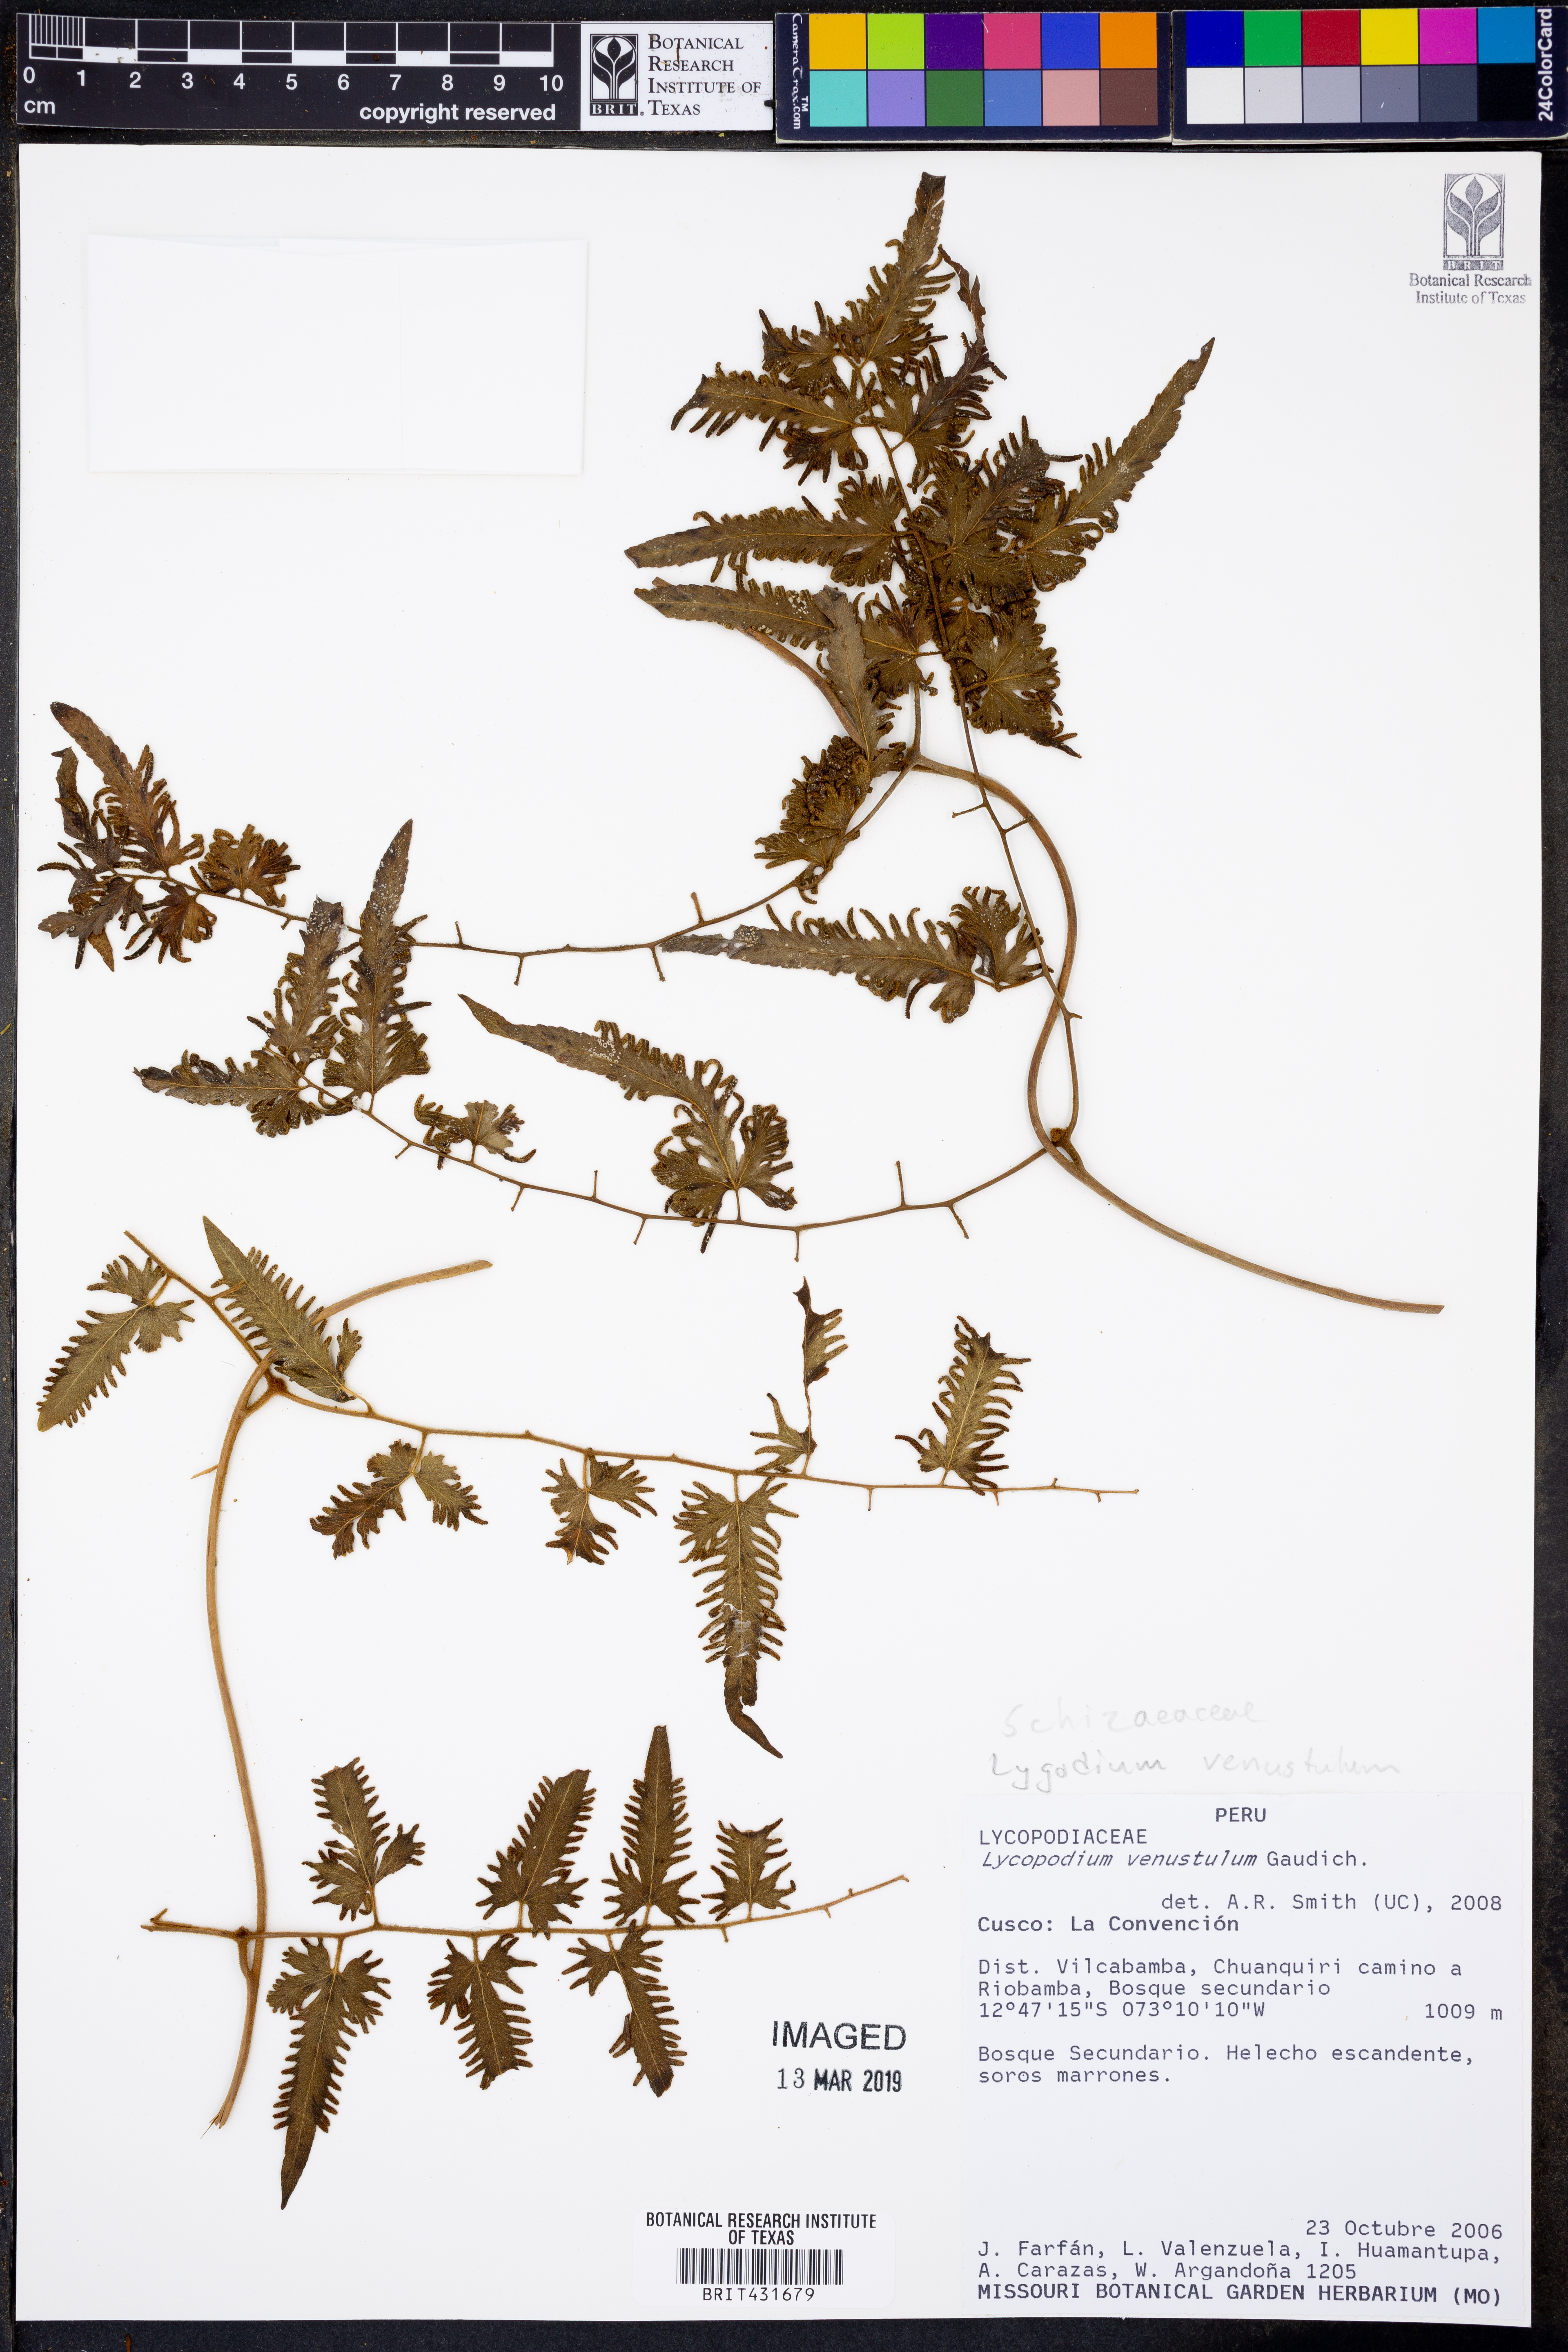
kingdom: Plantae
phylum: Tracheophyta
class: Polypodiopsida
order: Schizaeales
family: Lygodiaceae
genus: Lygodium
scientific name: Lygodium venustum
